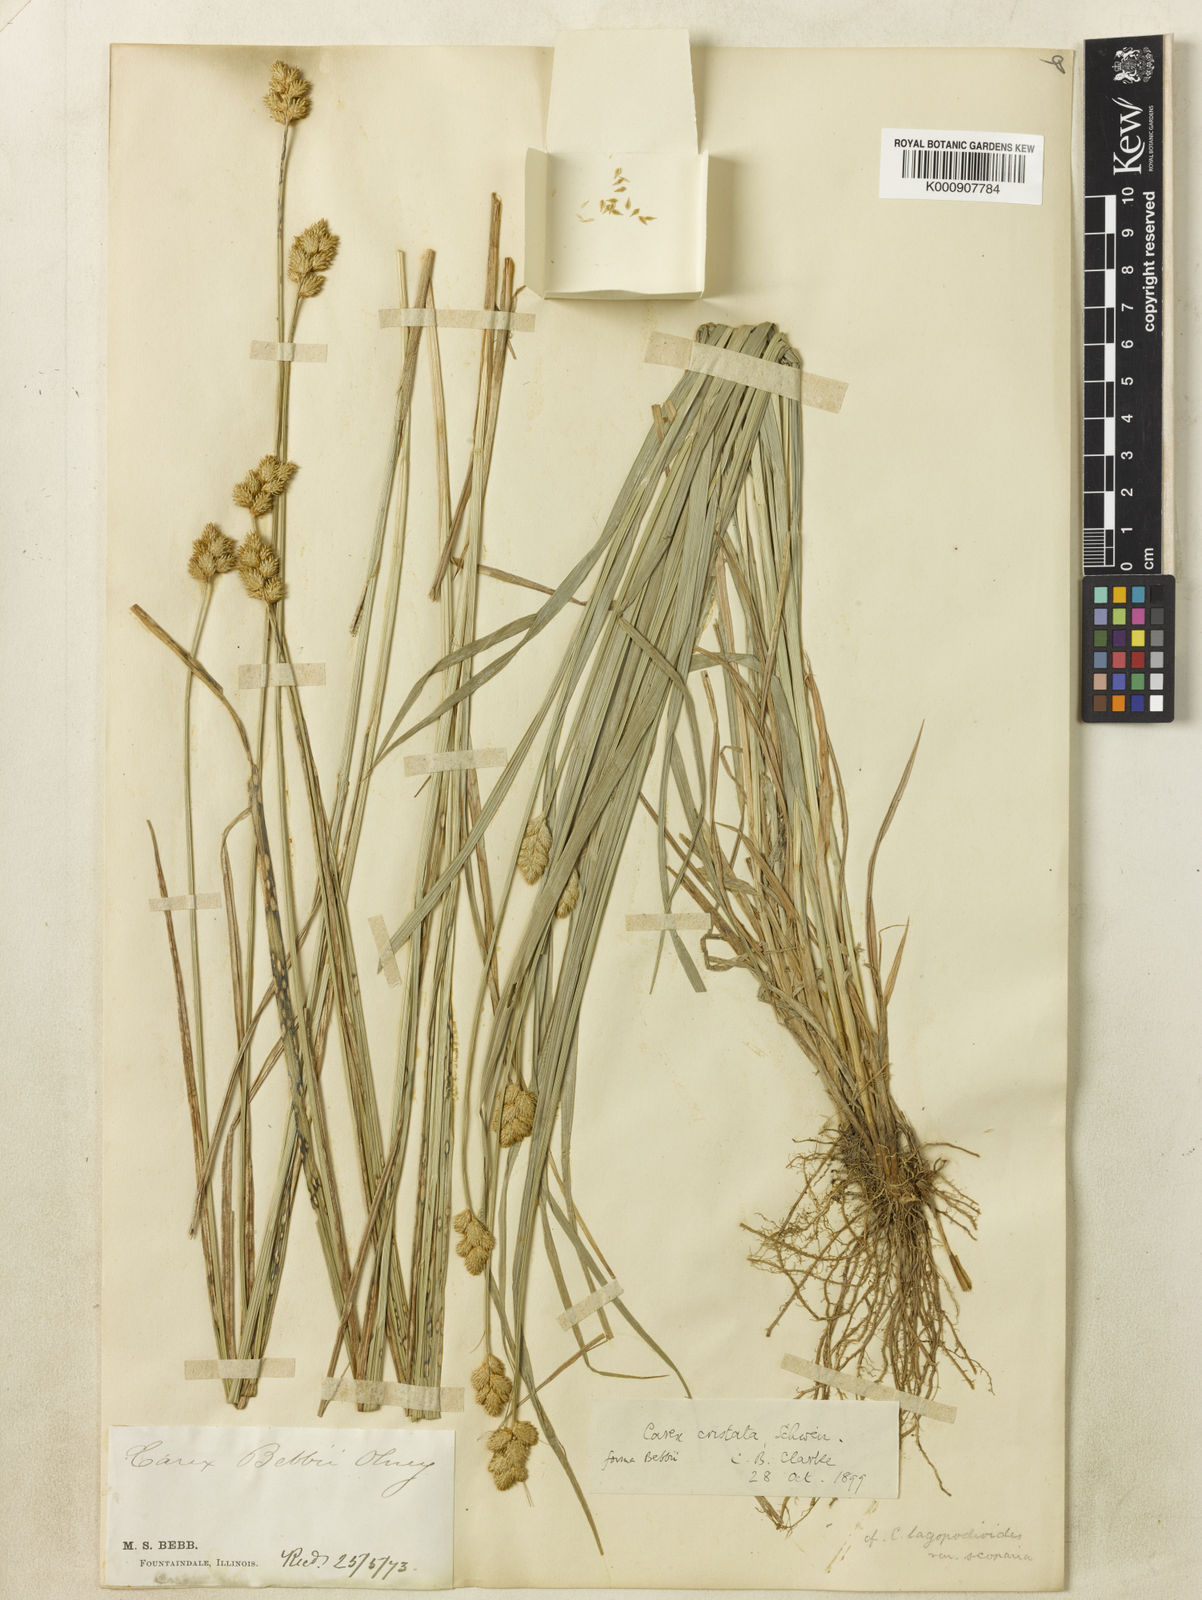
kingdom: Plantae
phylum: Tracheophyta
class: Liliopsida
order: Poales
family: Cyperaceae
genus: Carex
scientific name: Carex
